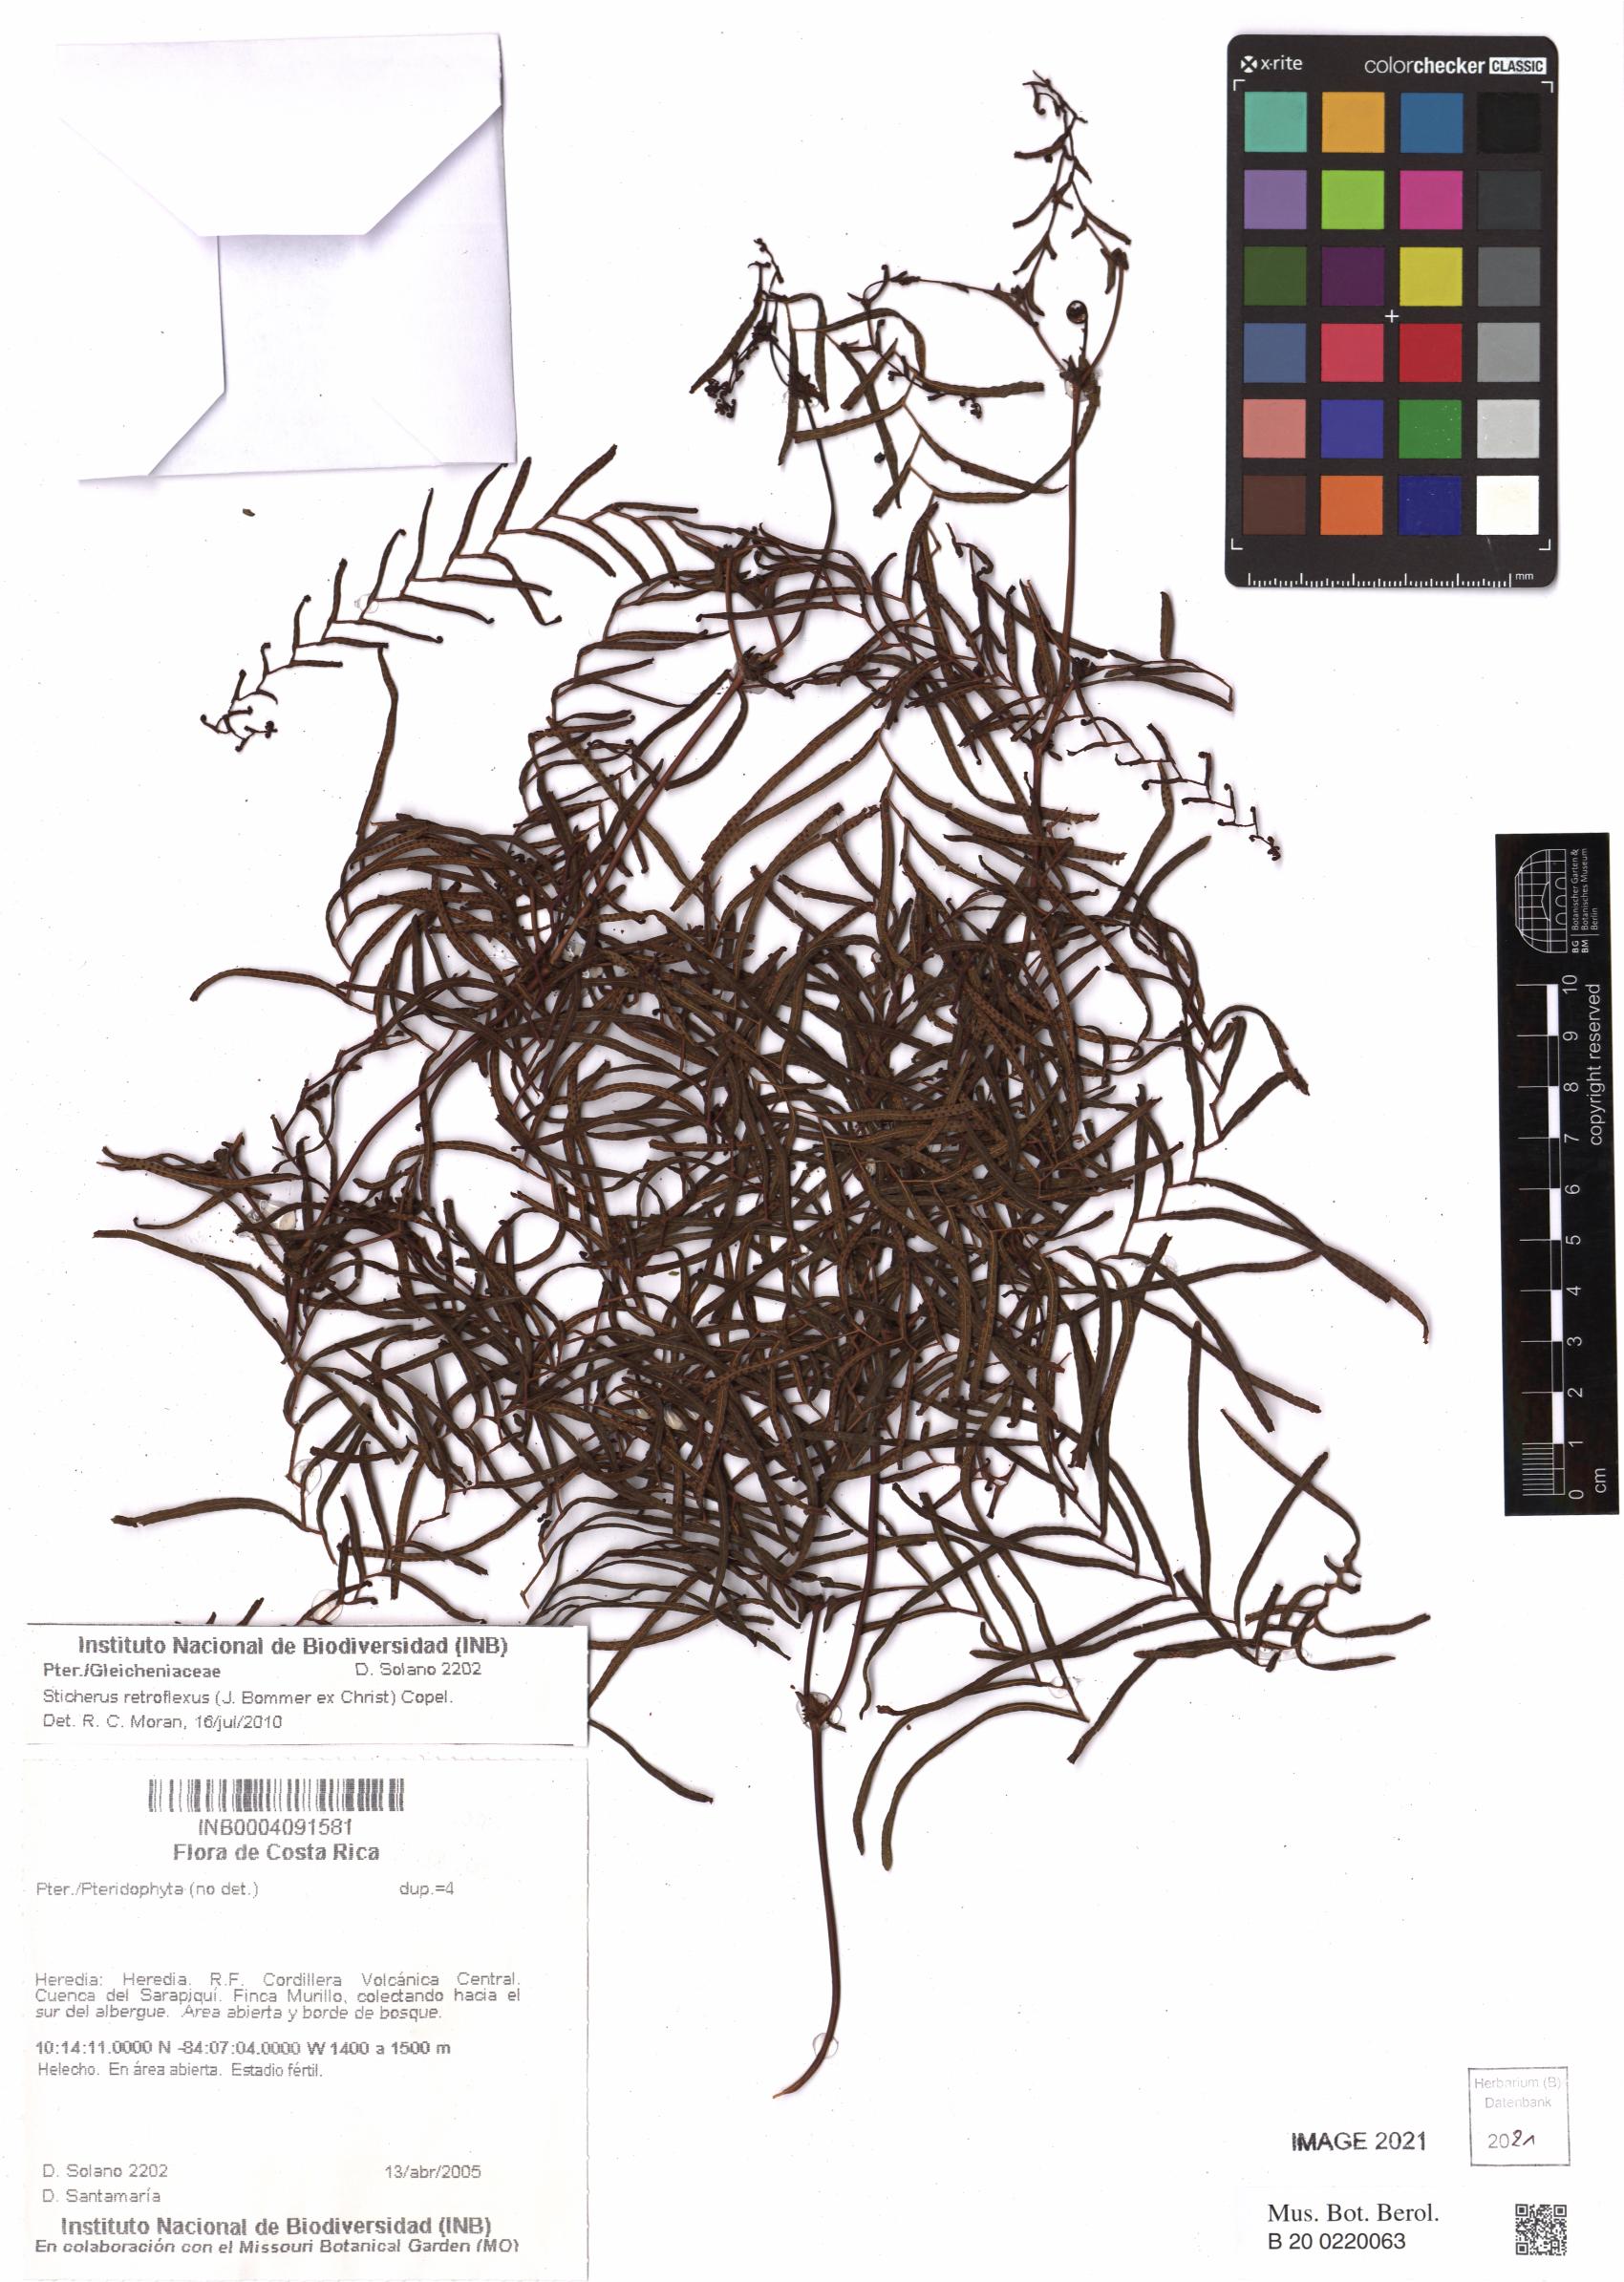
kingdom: Plantae
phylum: Tracheophyta
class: Polypodiopsida
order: Gleicheniales
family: Gleicheniaceae
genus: Sticherus
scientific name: Sticherus retroflexus
